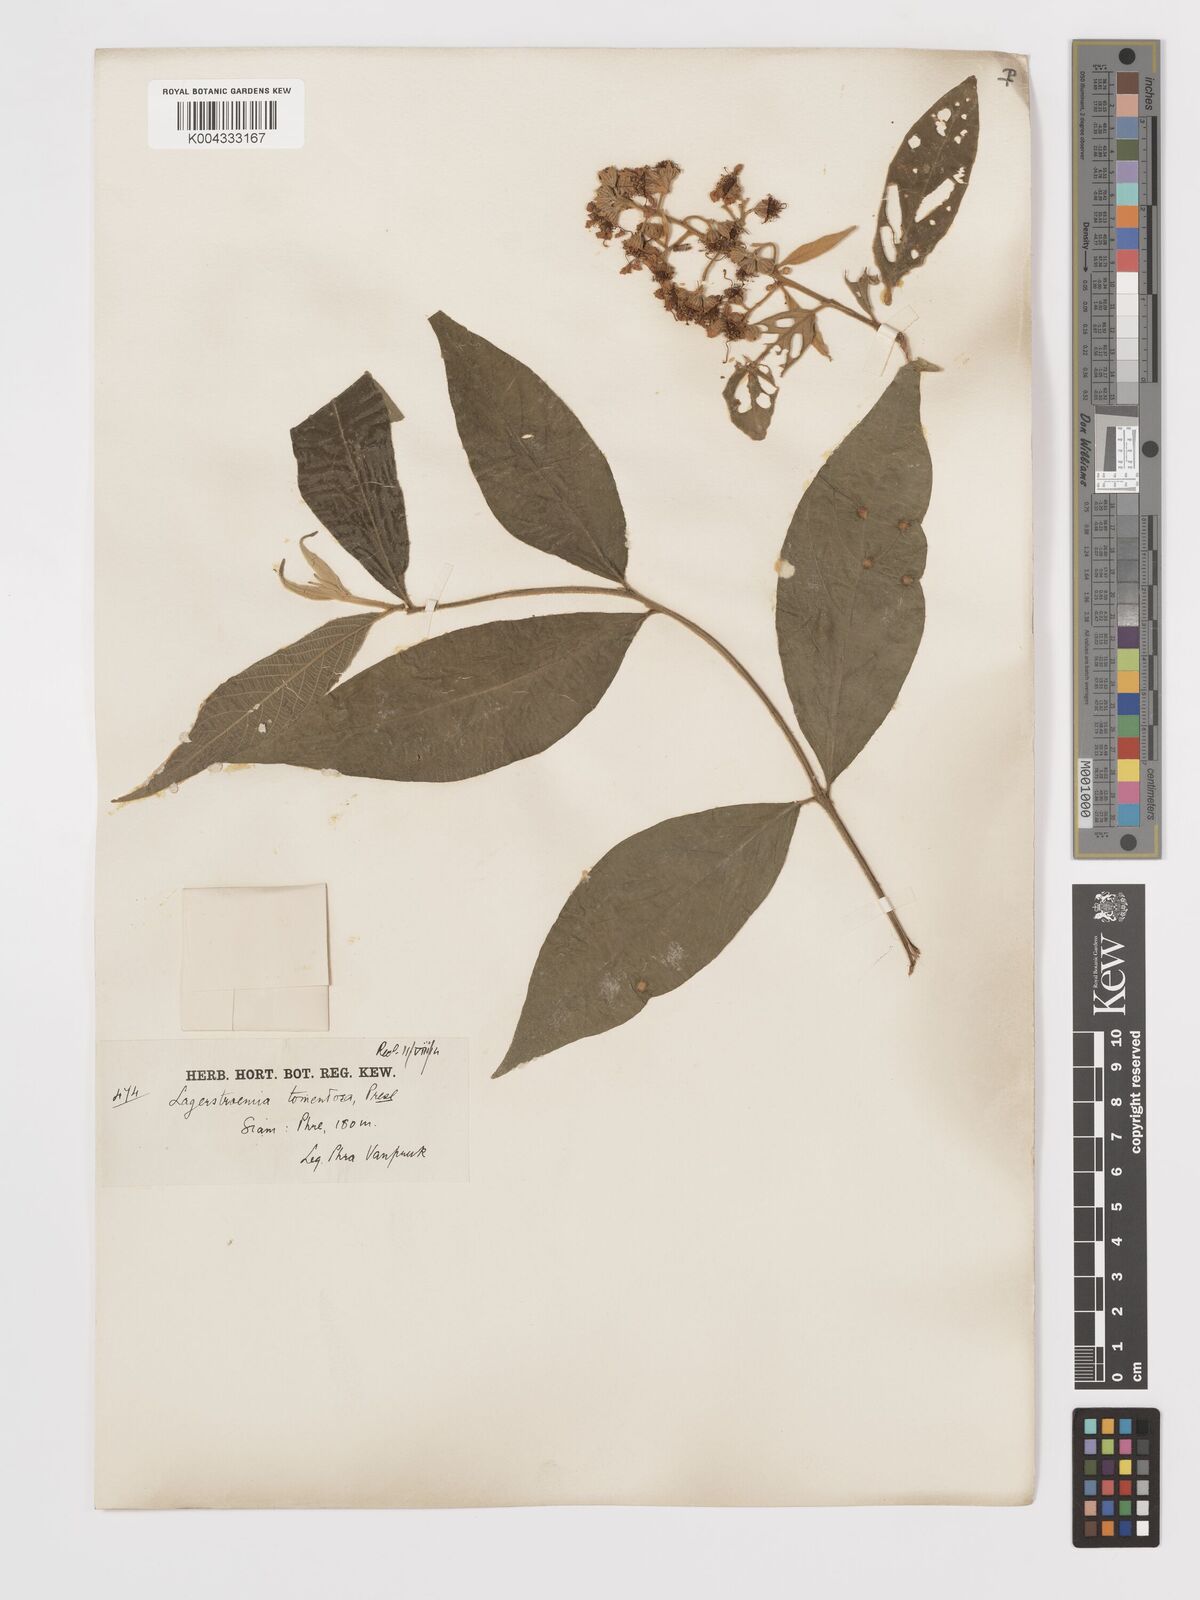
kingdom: Plantae
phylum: Tracheophyta
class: Magnoliopsida
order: Myrtales
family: Lythraceae
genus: Lagerstroemia
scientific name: Lagerstroemia tomentosa
